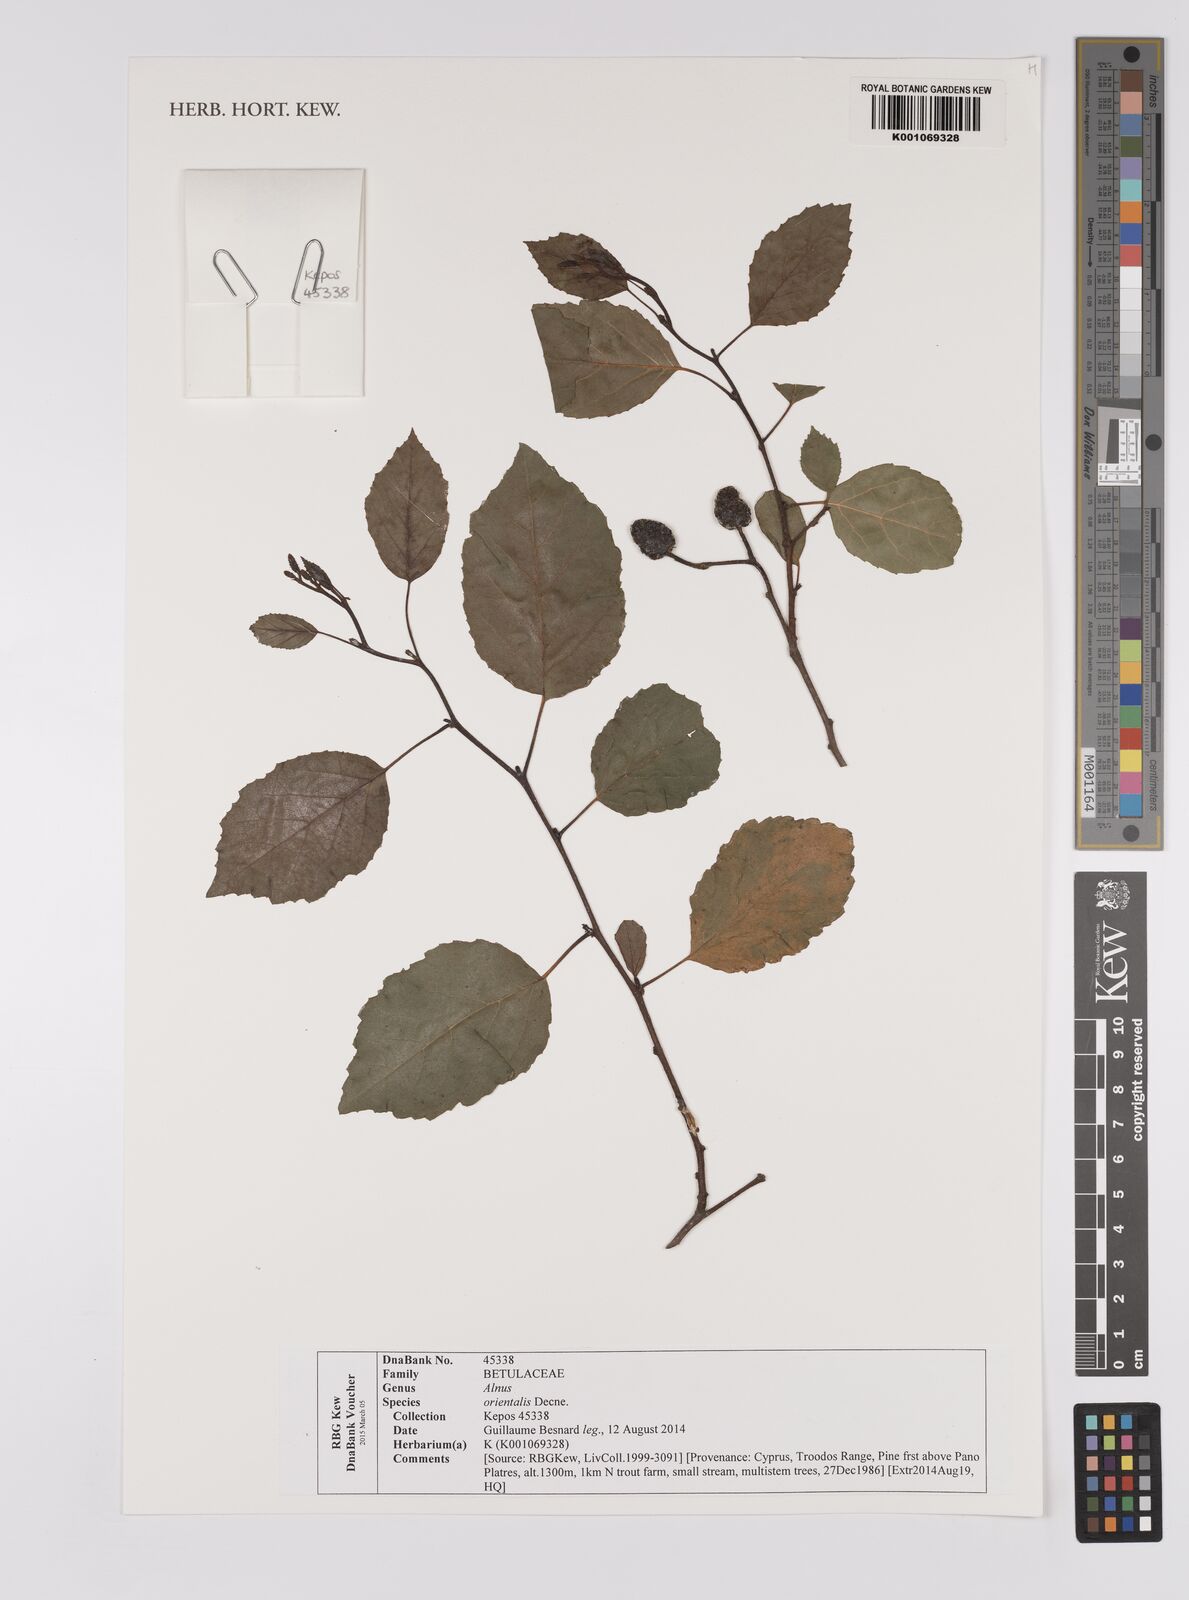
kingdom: Plantae
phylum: Tracheophyta
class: Magnoliopsida
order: Fagales
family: Betulaceae
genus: Alnus
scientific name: Alnus orientalis
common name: Oriental alder
